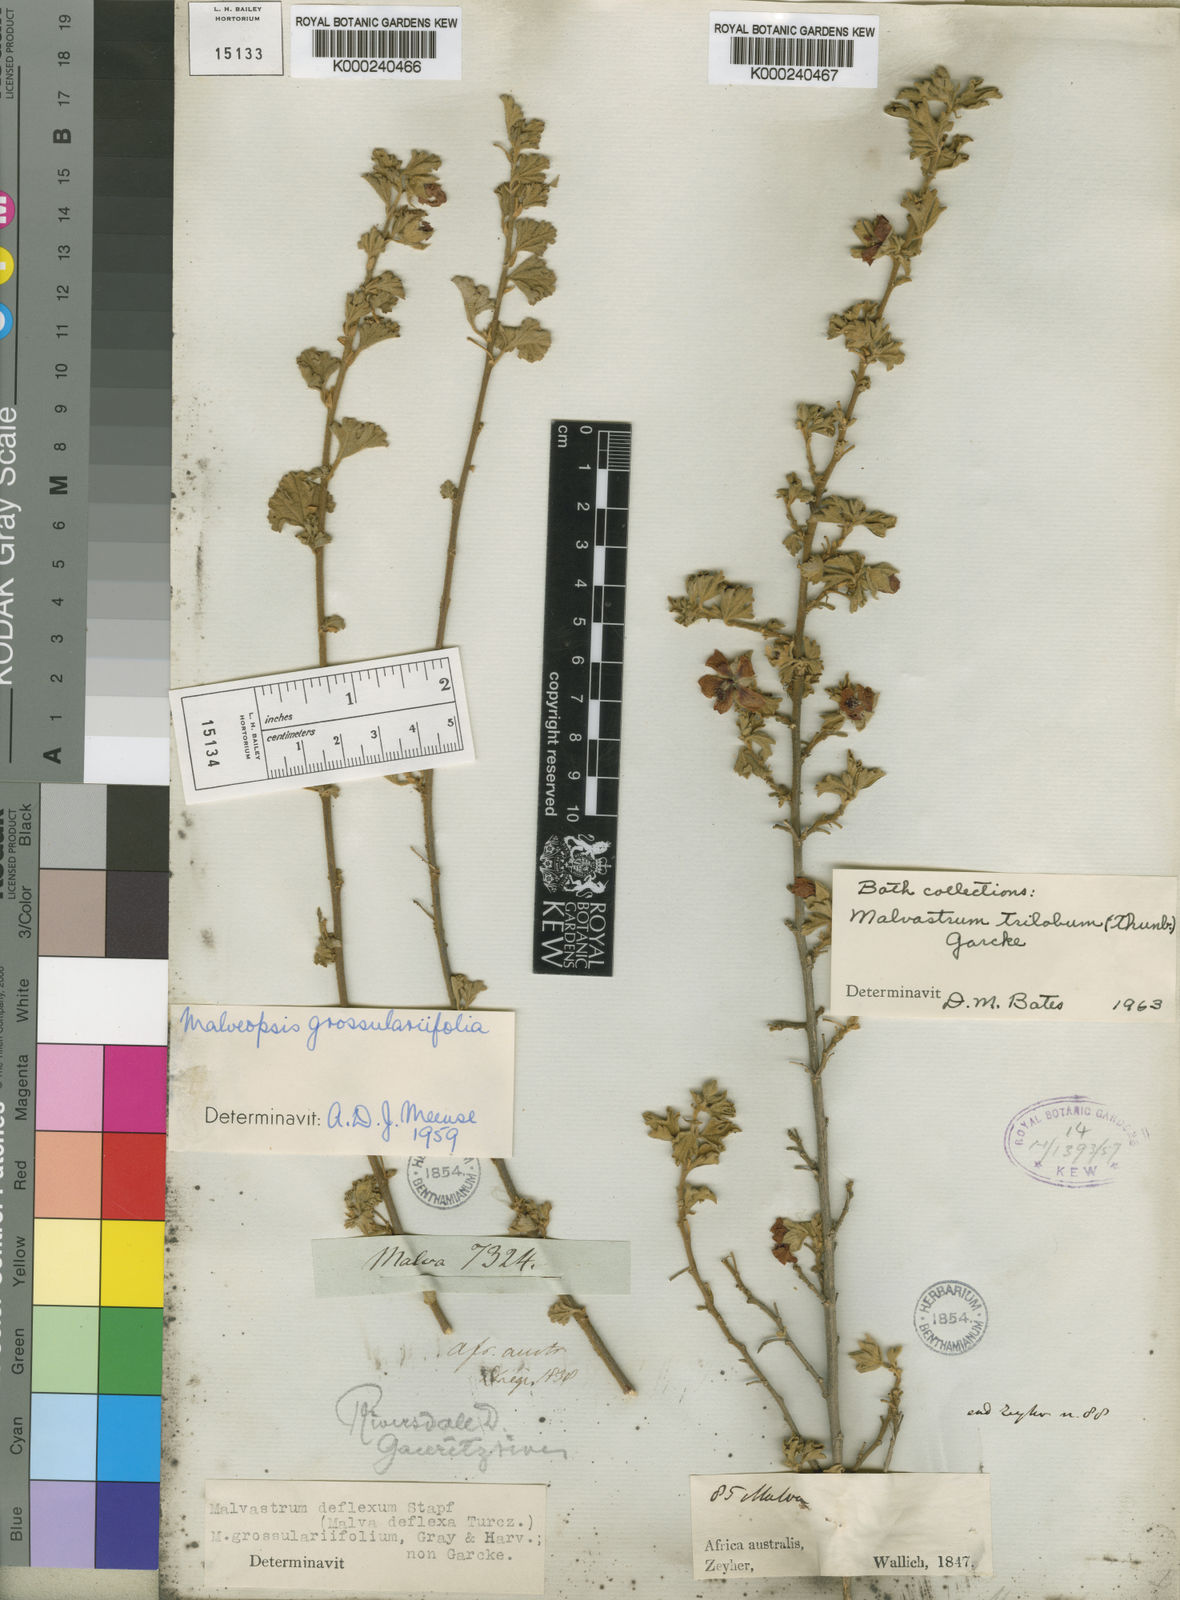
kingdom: Plantae
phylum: Tracheophyta
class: Magnoliopsida
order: Malvales
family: Malvaceae
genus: Anisodontea
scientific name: Anisodontea triloba
